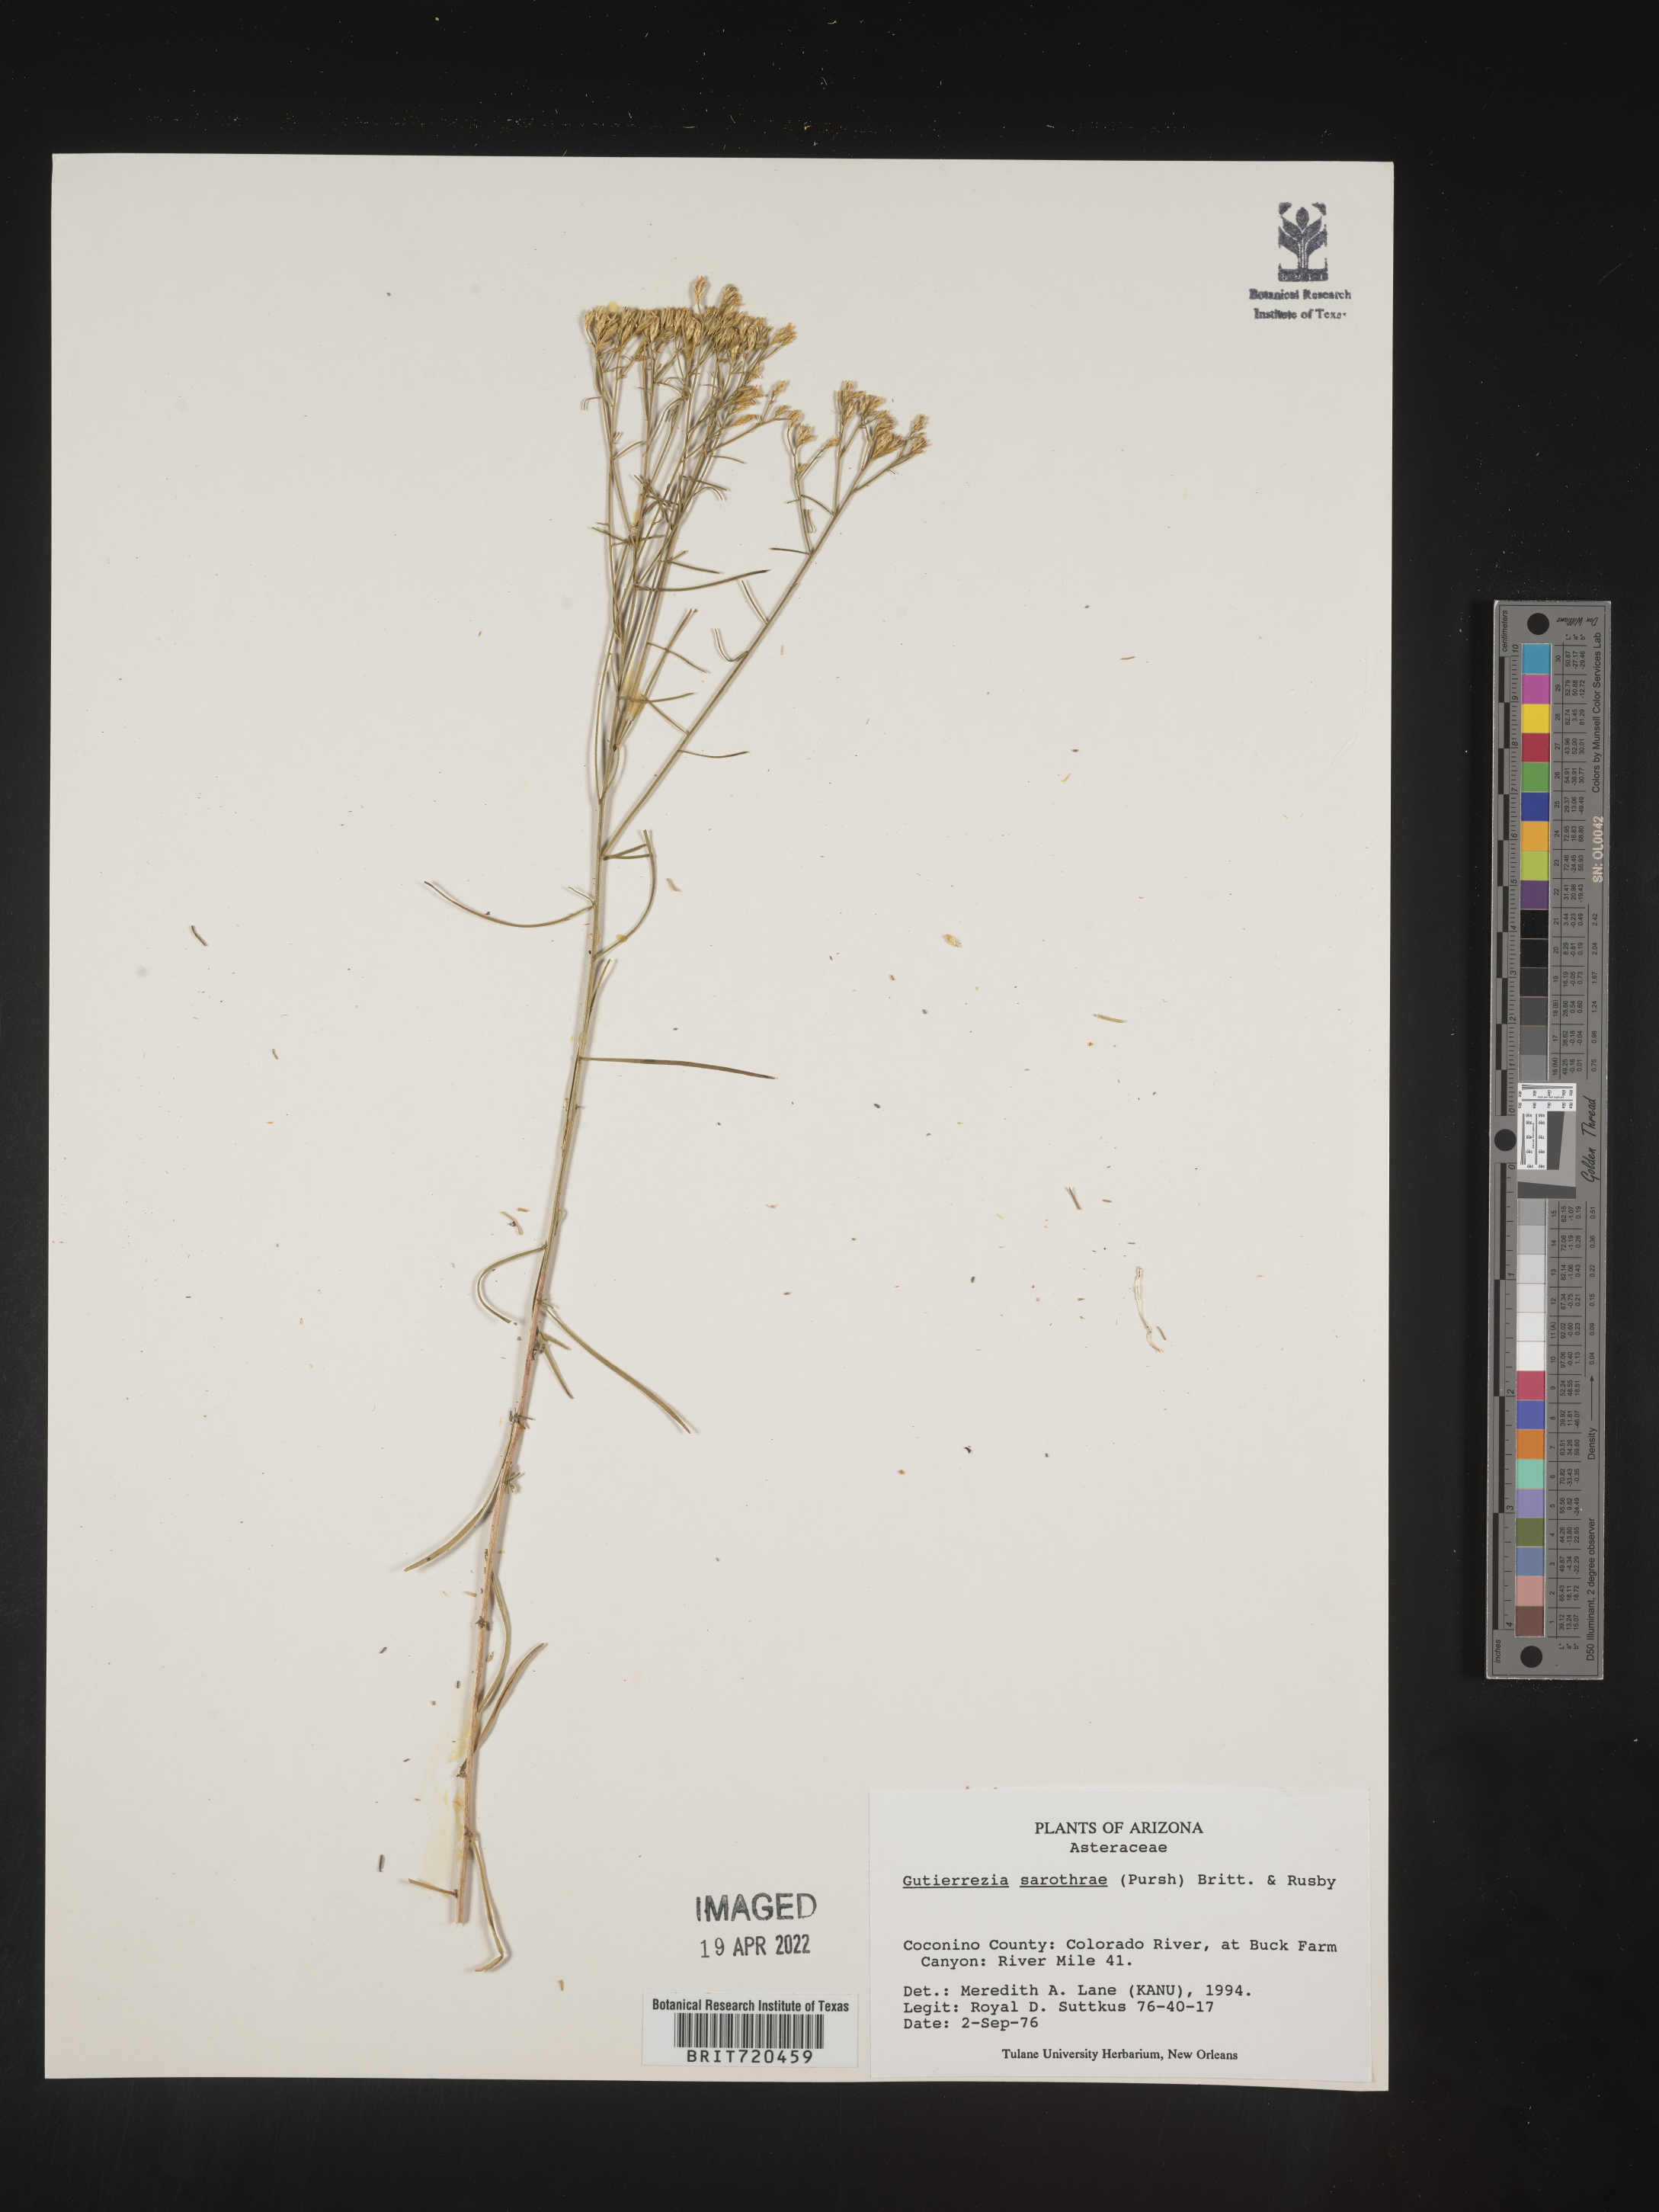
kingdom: Plantae
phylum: Tracheophyta
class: Magnoliopsida
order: Asterales
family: Asteraceae
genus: Gutierrezia
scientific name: Gutierrezia sarothrae
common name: Broom snakeweed
